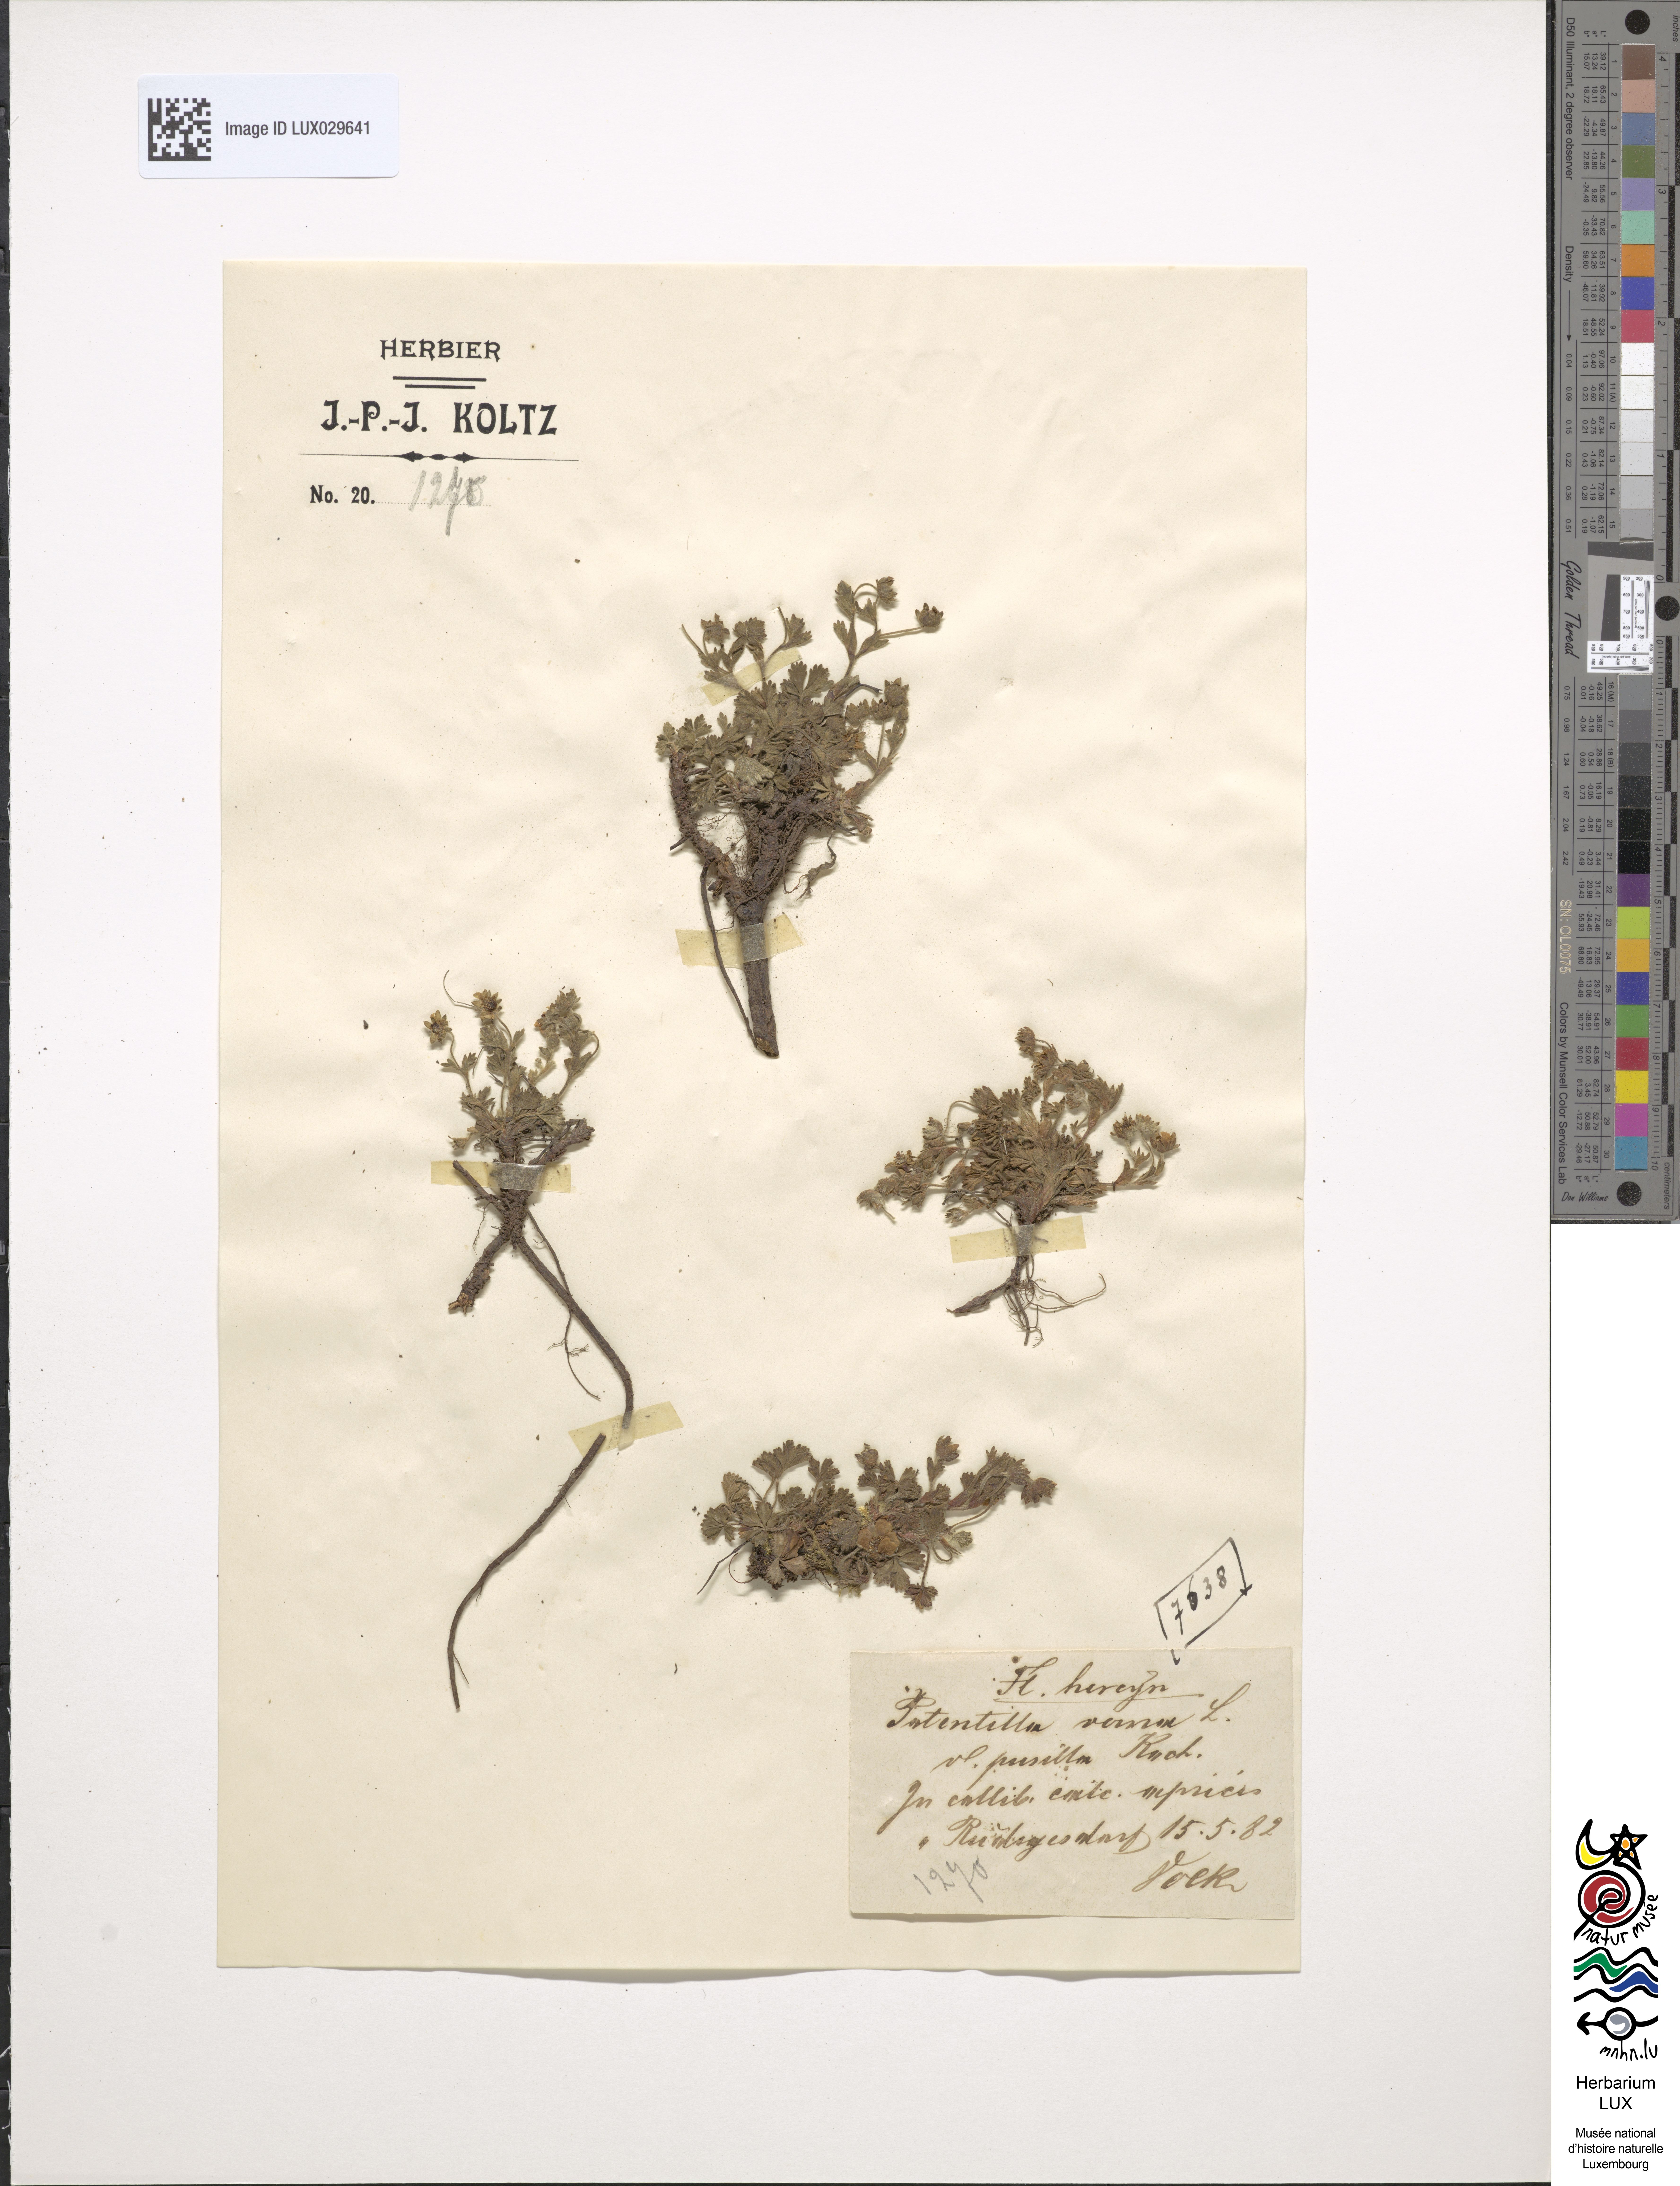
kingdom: Plantae
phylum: Tracheophyta
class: Magnoliopsida
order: Rosales
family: Rosaceae
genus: Potentilla
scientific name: Potentilla pusilla
